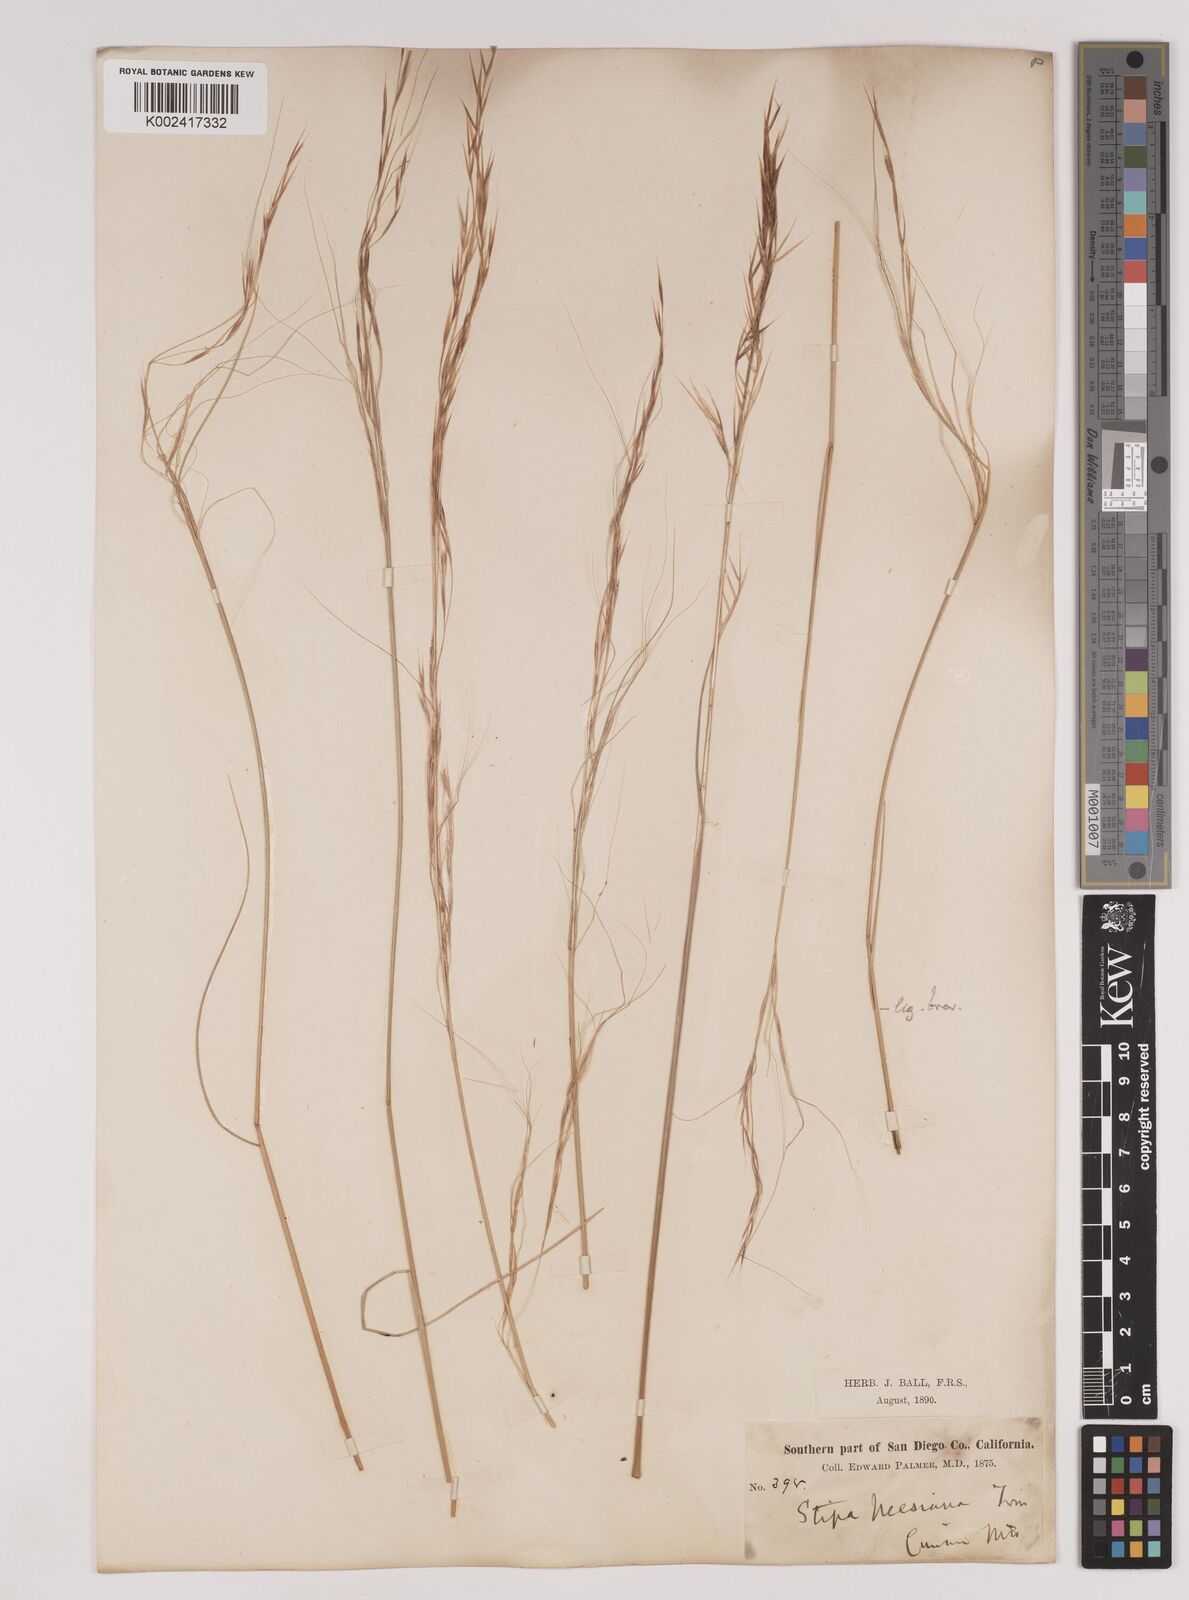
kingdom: Plantae
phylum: Tracheophyta
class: Liliopsida
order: Poales
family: Poaceae
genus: Nassella
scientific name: Nassella pulchra
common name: Purple needlegrass
